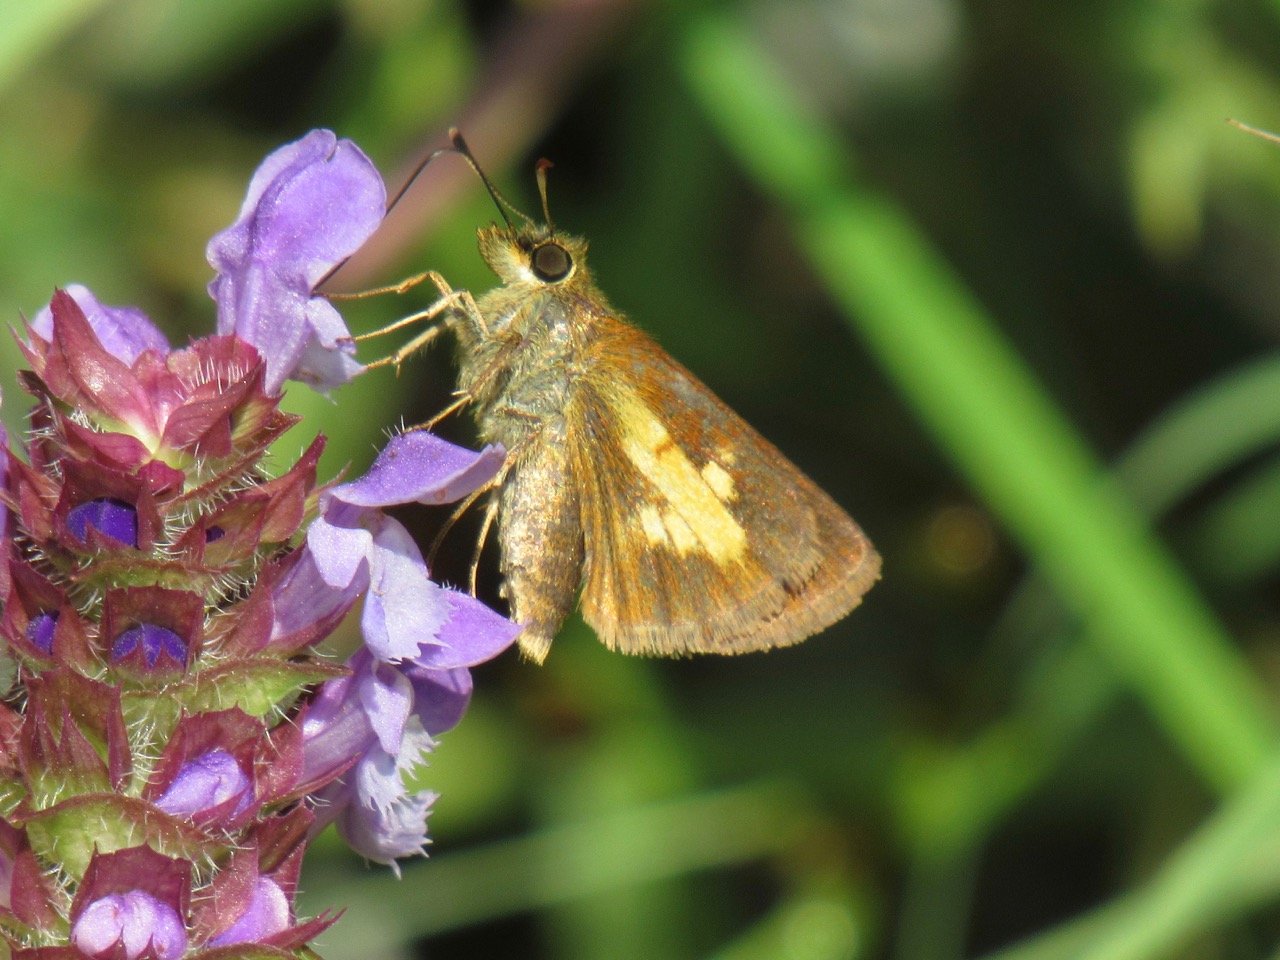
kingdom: Animalia
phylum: Arthropoda
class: Insecta
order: Lepidoptera
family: Hesperiidae
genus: Poanes
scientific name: Poanes massasoit
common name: Mulberry Wing
